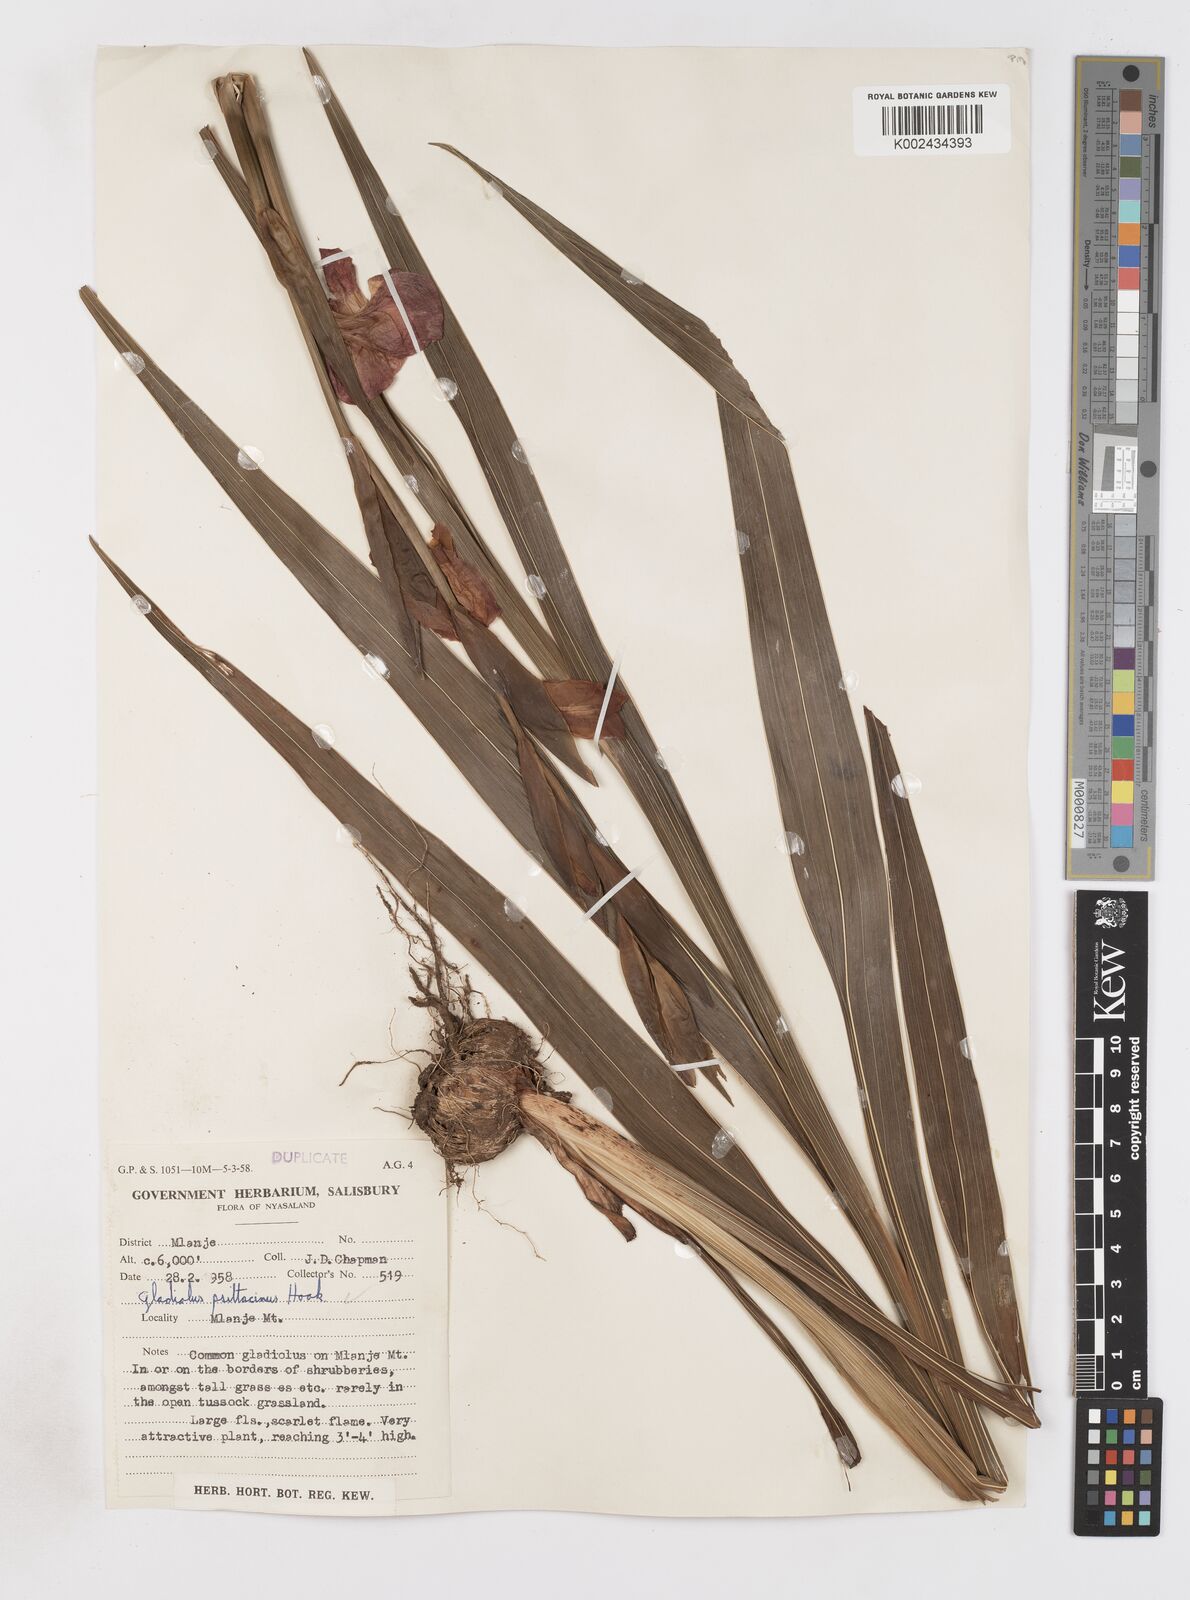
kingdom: Plantae
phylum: Tracheophyta
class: Liliopsida
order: Asparagales
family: Iridaceae
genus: Gladiolus
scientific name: Gladiolus dalenii
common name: Cornflag
